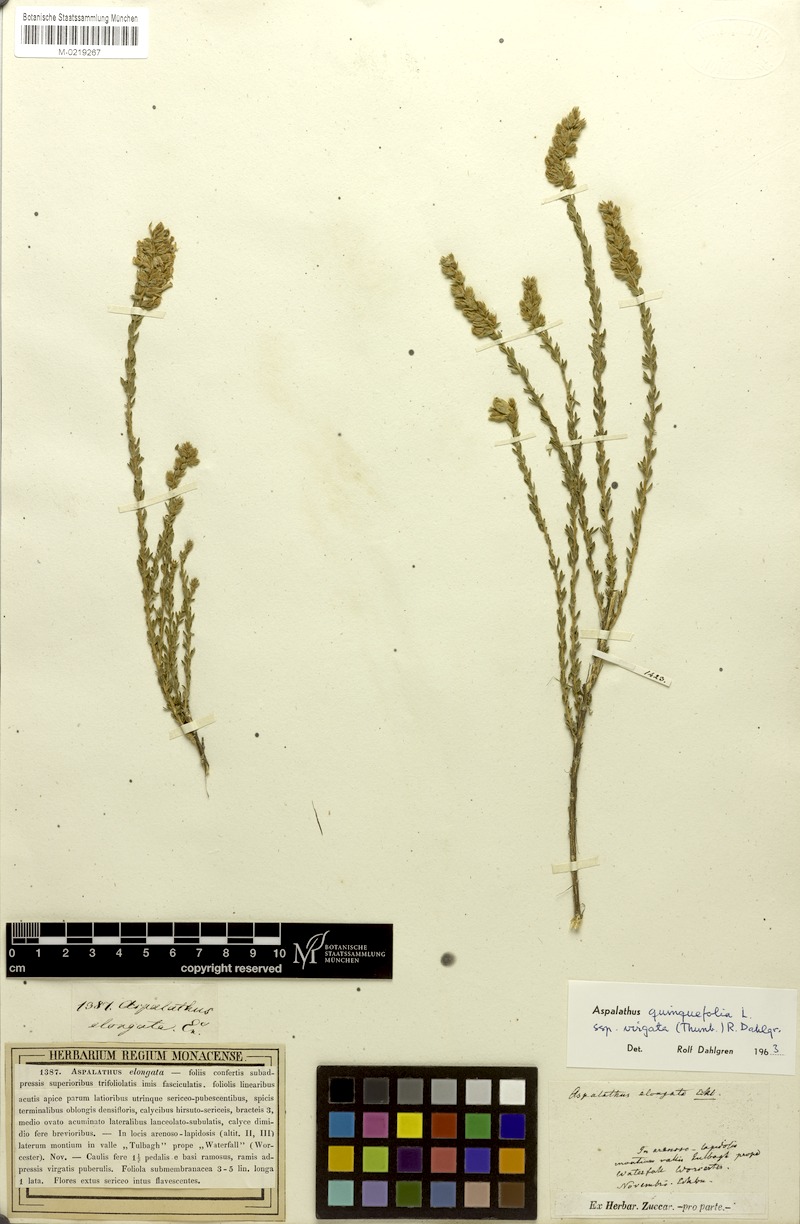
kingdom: Plantae
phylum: Tracheophyta
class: Magnoliopsida
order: Fabales
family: Fabaceae
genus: Aspalathus
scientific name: Aspalathus quinquefolia
